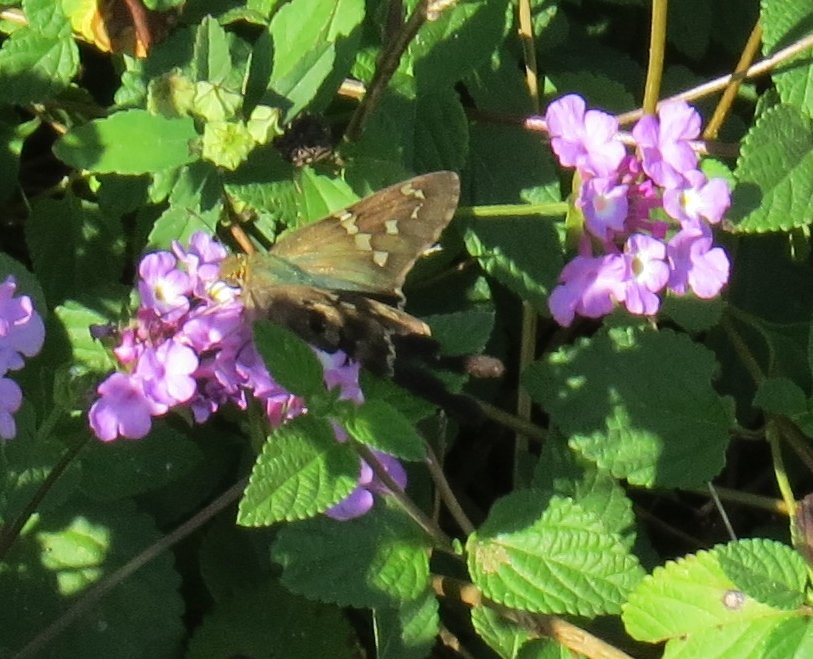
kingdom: Animalia
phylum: Arthropoda
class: Insecta
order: Lepidoptera
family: Hesperiidae
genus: Urbanus
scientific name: Urbanus proteus
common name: Long-tailed Skipper
